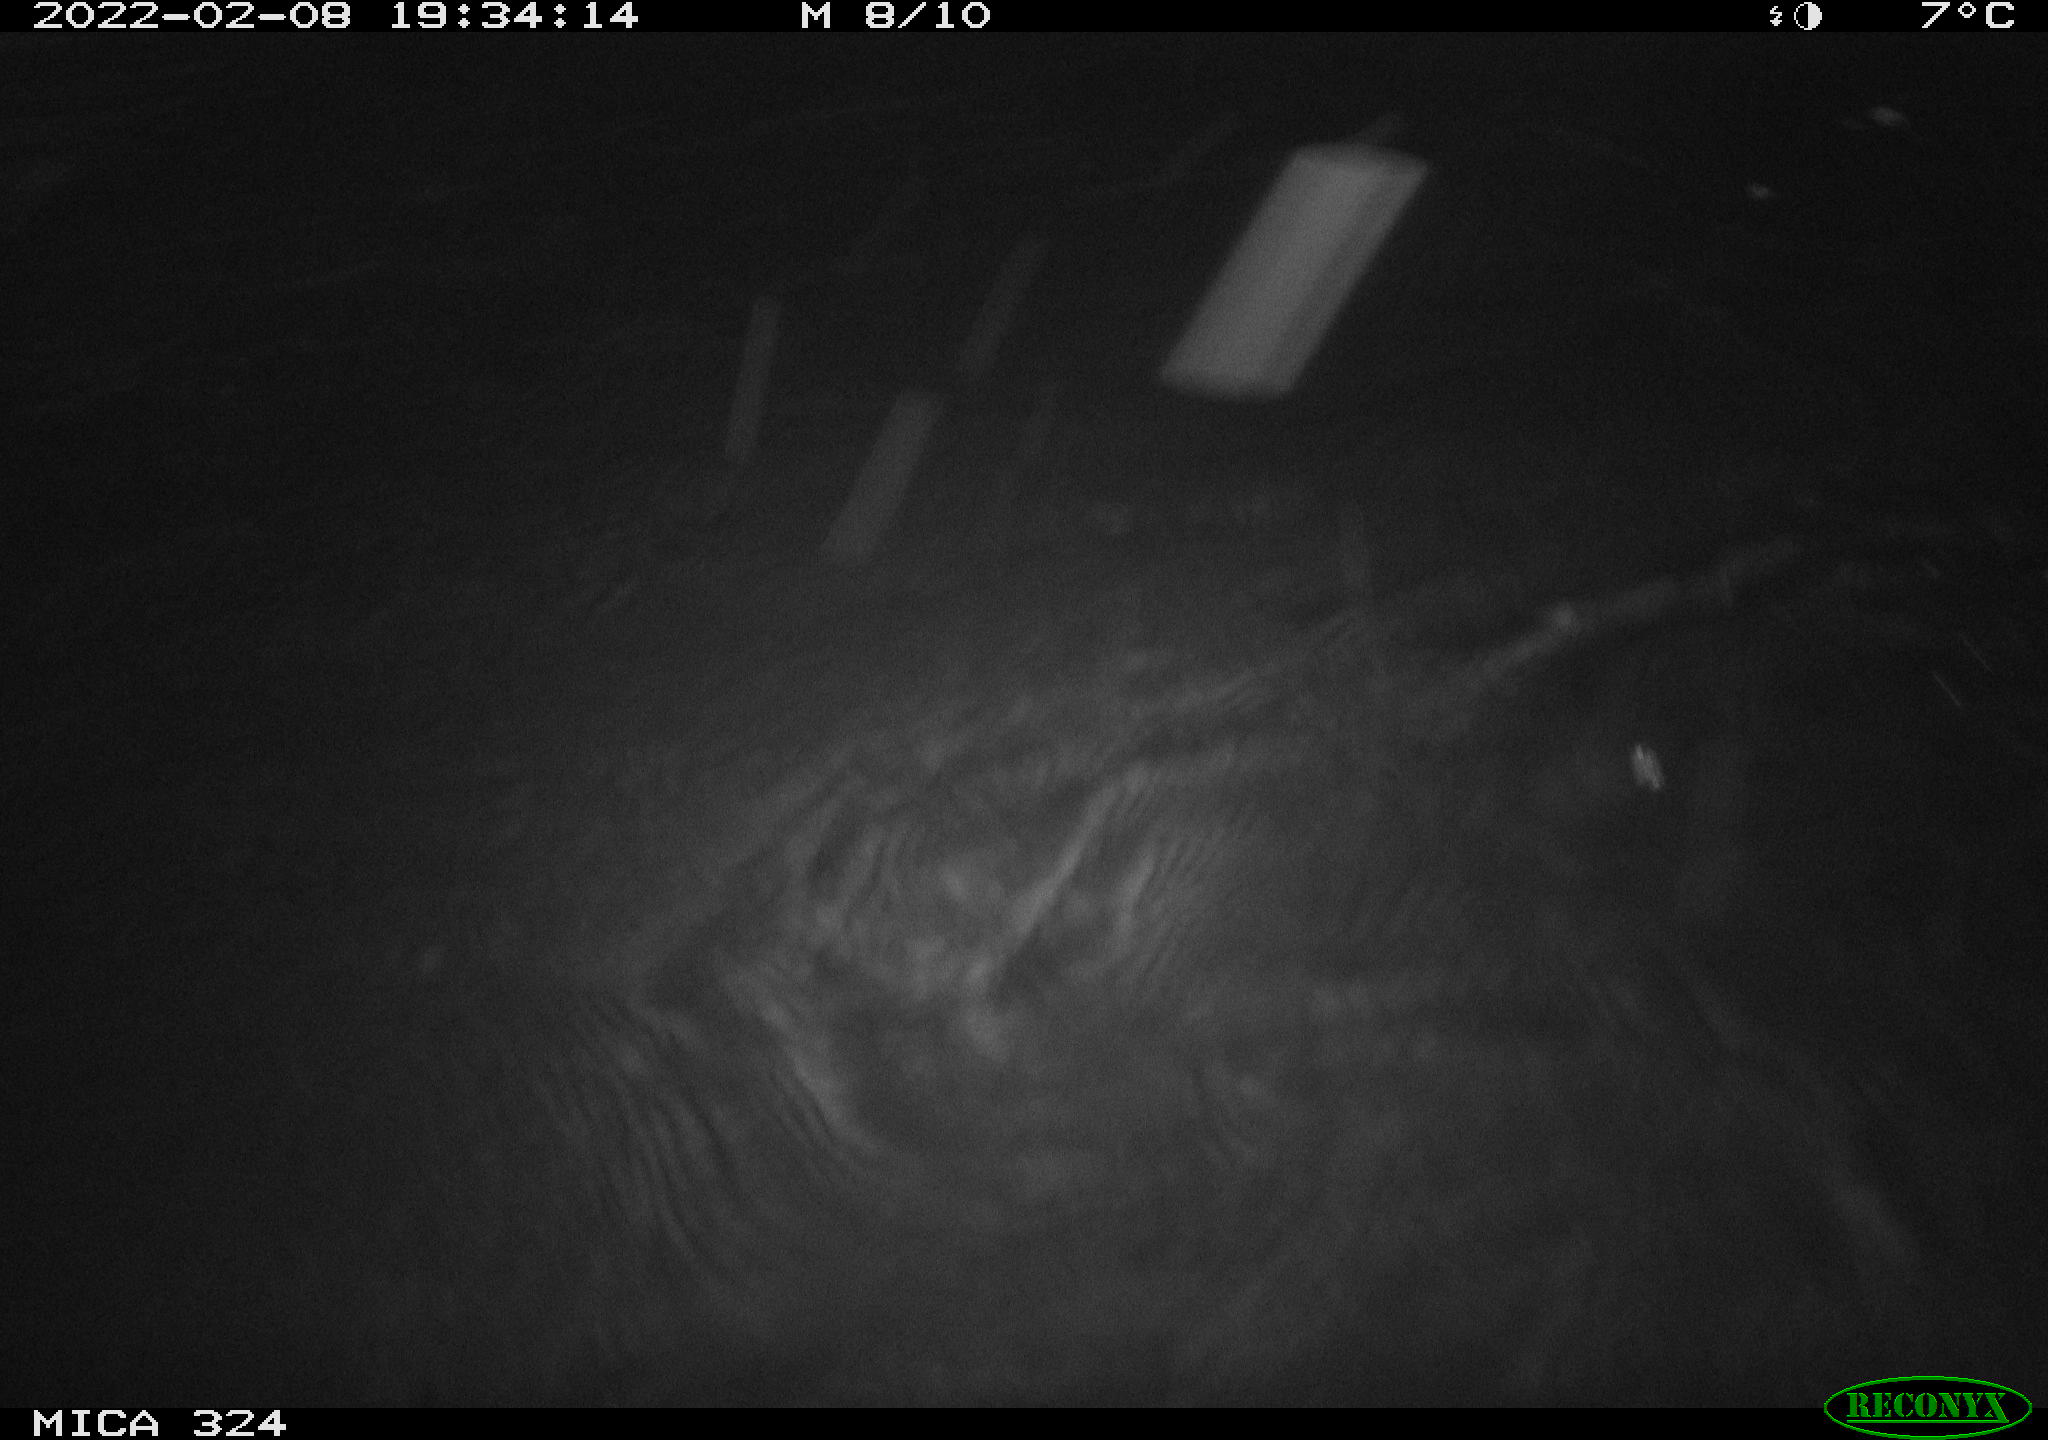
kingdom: Animalia
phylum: Chordata
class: Mammalia
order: Rodentia
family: Cricetidae
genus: Ondatra
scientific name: Ondatra zibethicus
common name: Muskrat
